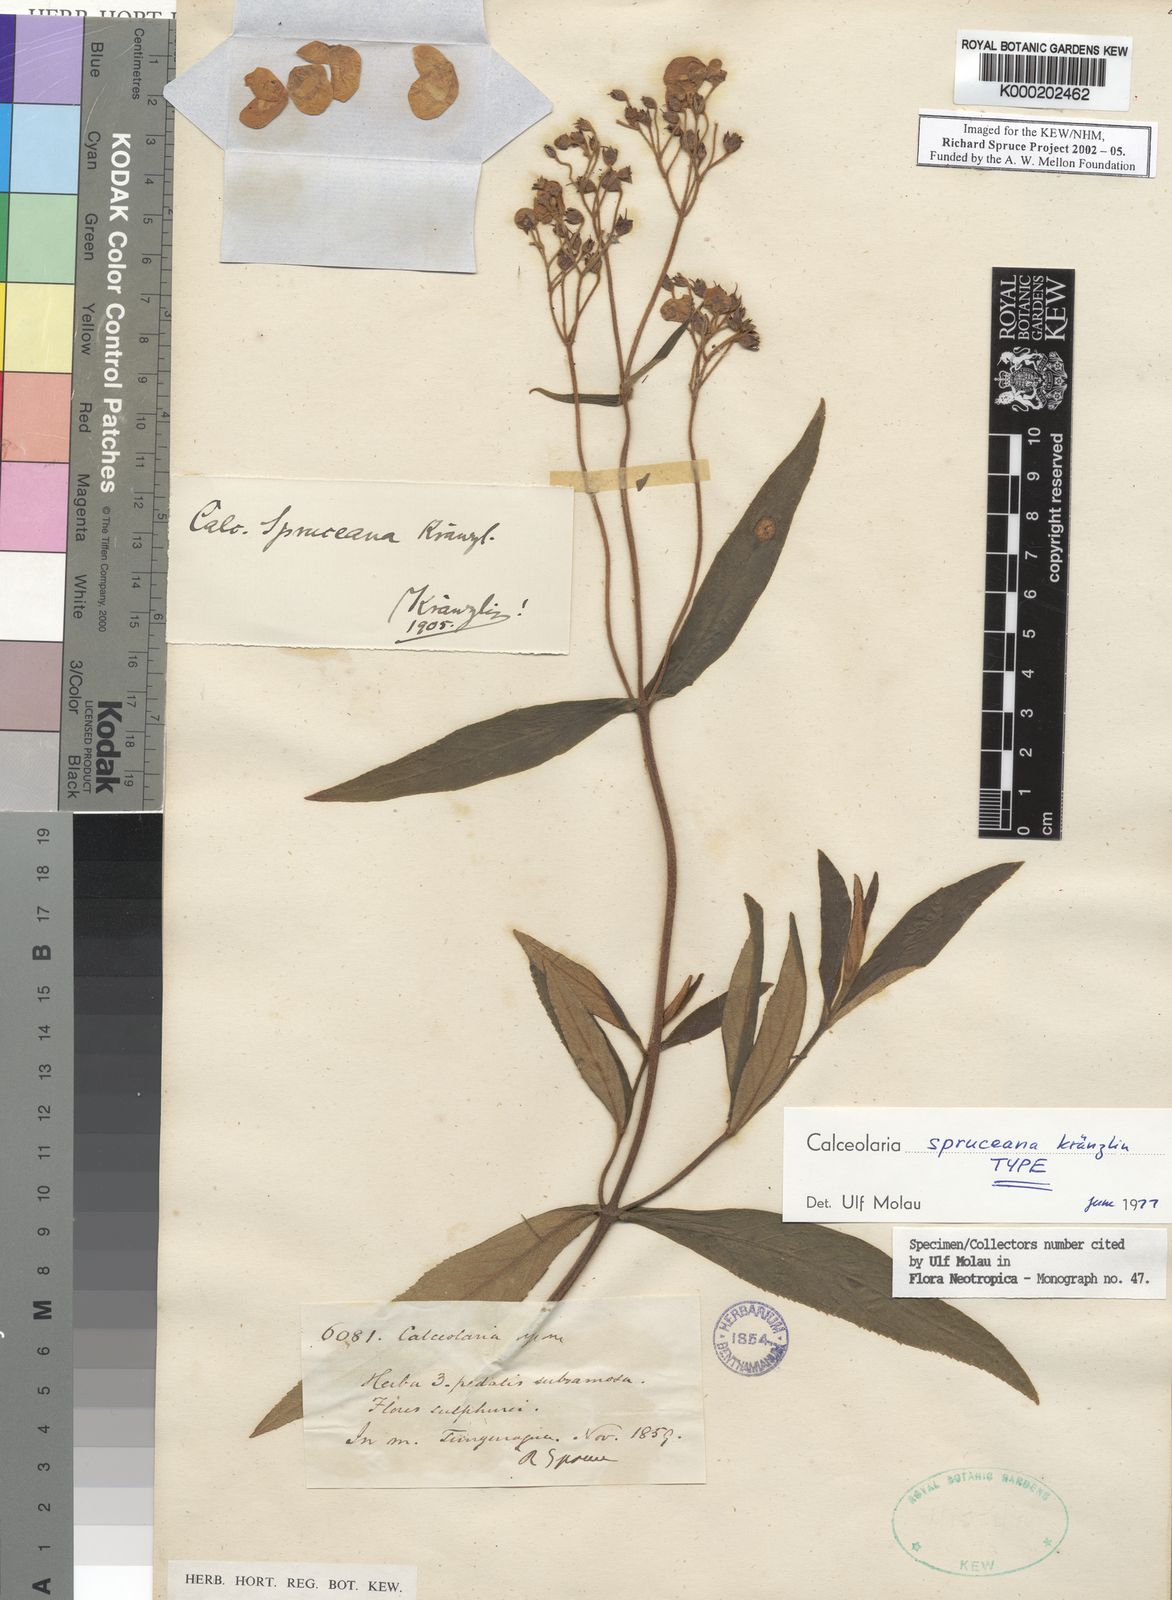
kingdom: Plantae
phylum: Tracheophyta
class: Magnoliopsida
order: Lamiales
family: Calceolariaceae
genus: Calceolaria
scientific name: Calceolaria spruceana
